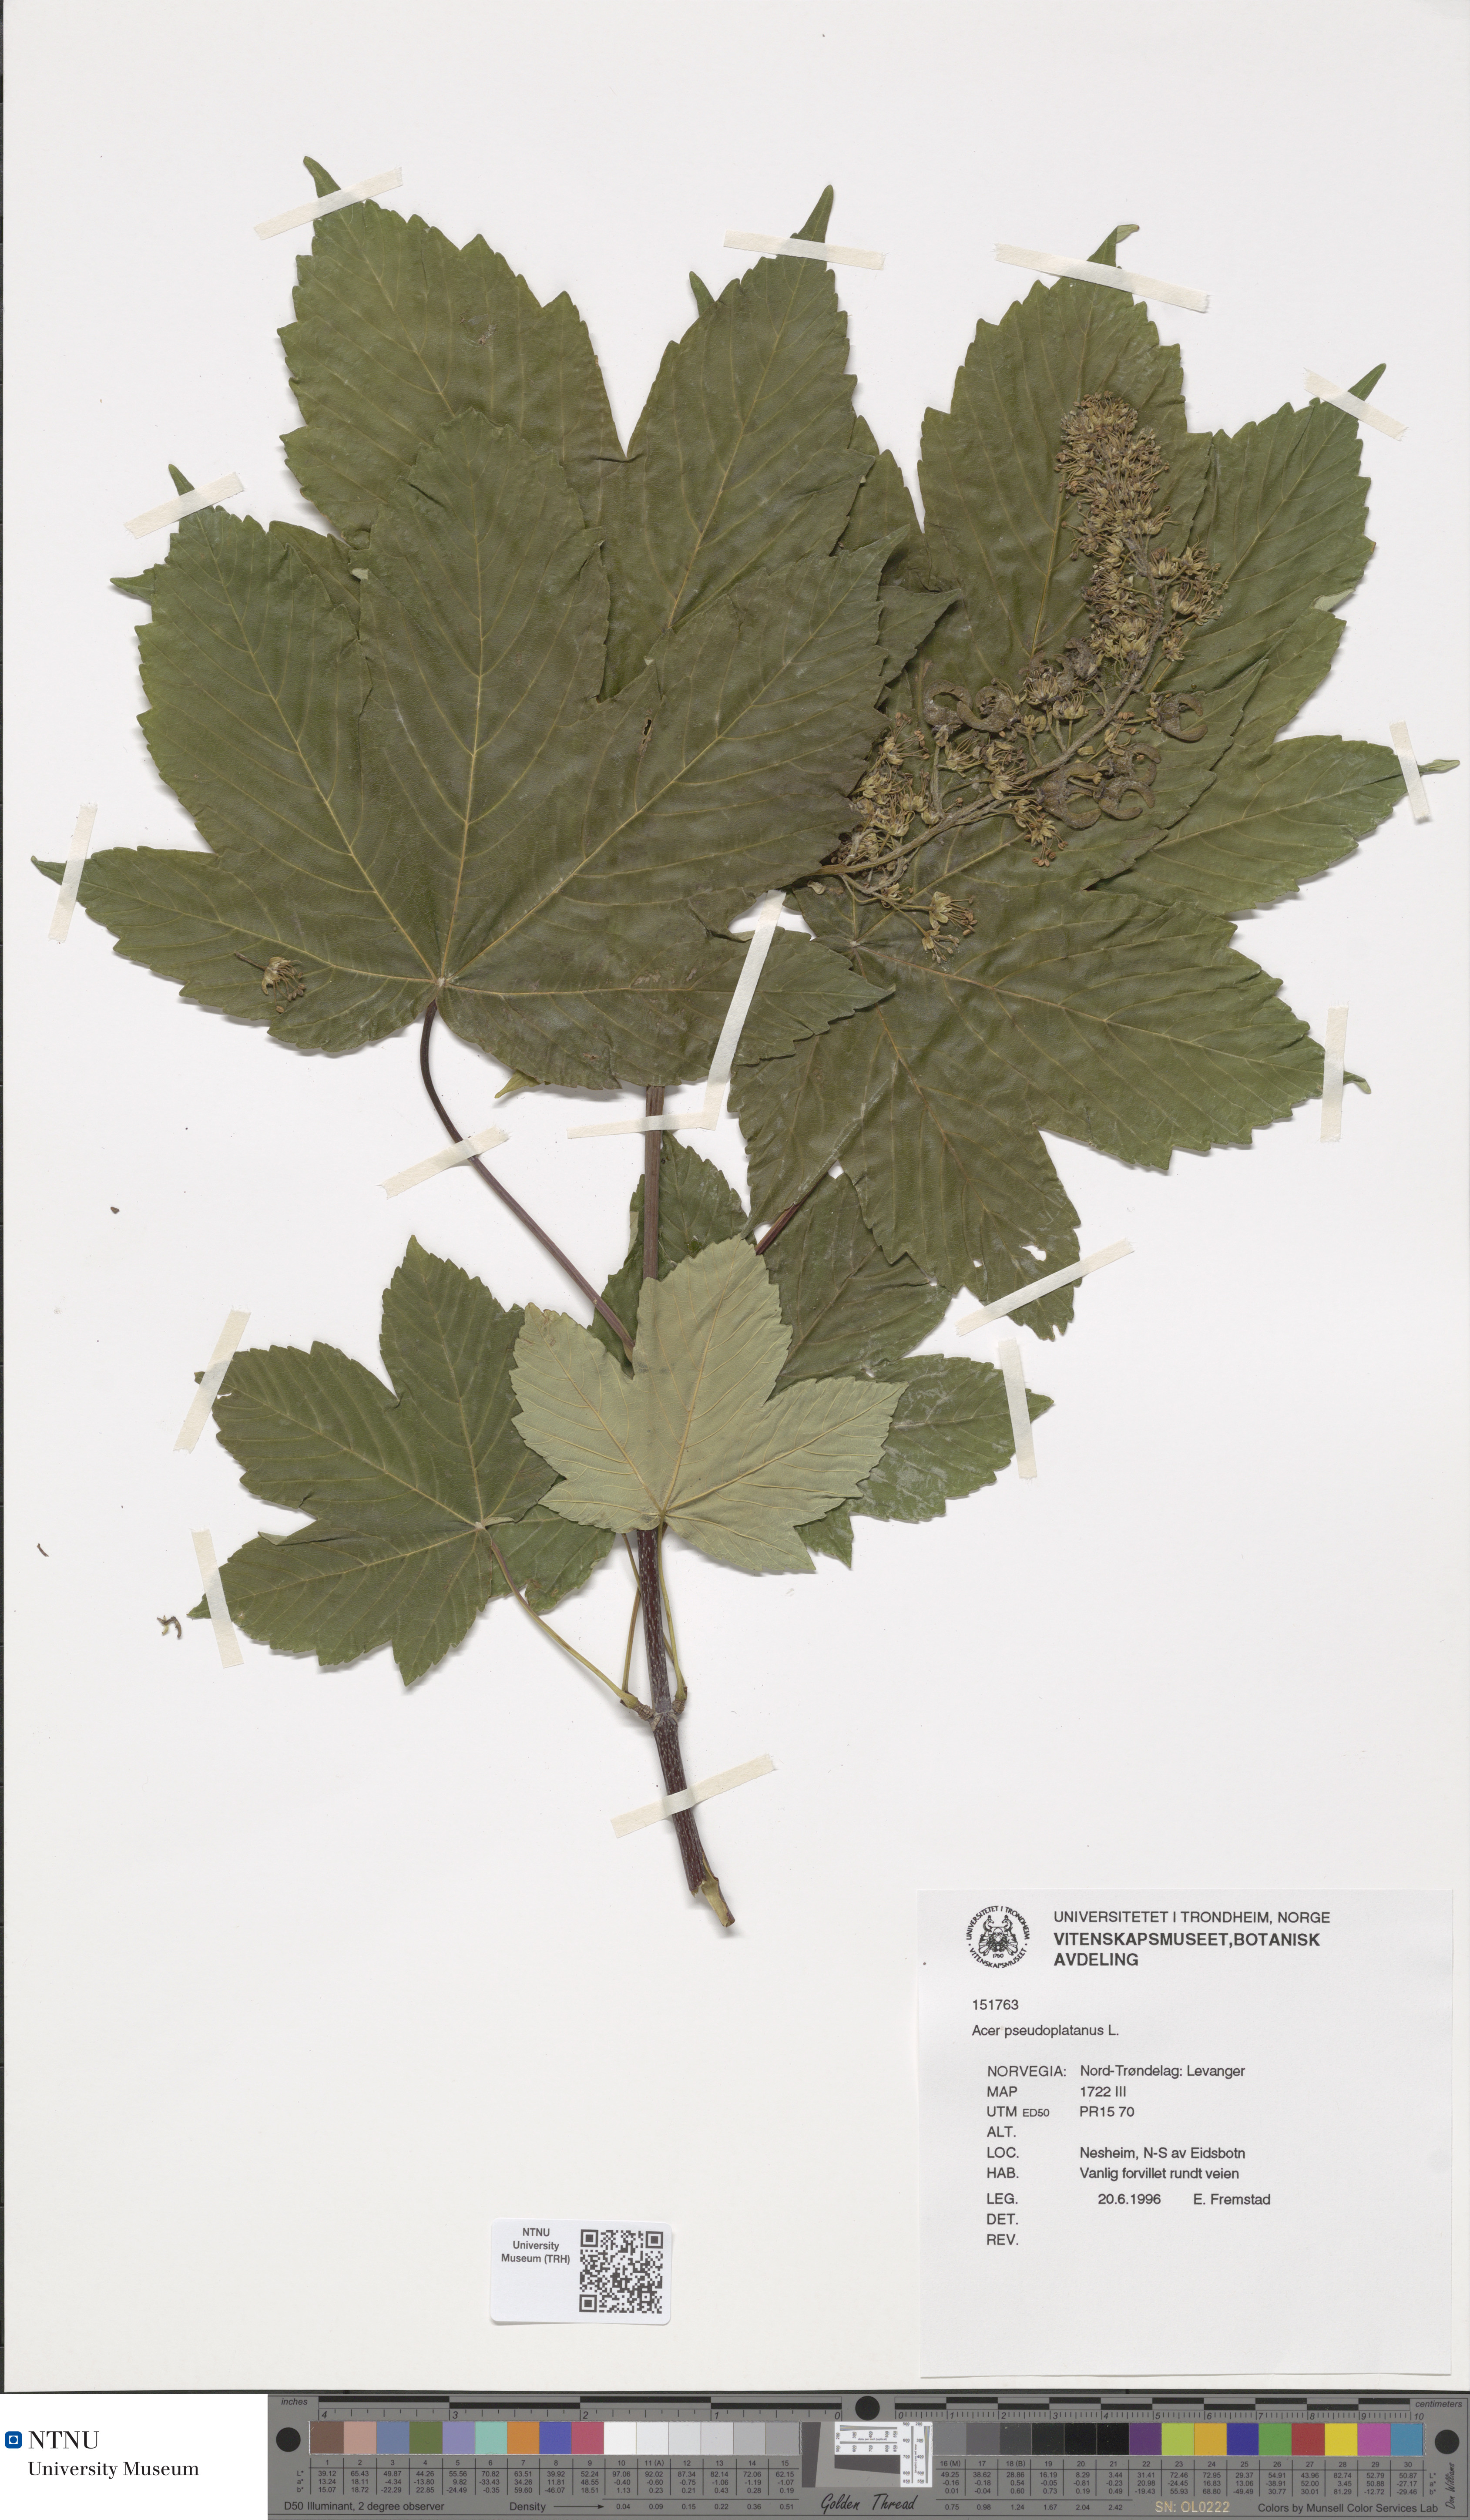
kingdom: Plantae
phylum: Tracheophyta
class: Magnoliopsida
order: Sapindales
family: Sapindaceae
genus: Acer
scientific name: Acer pseudoplatanus
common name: Sycamore
